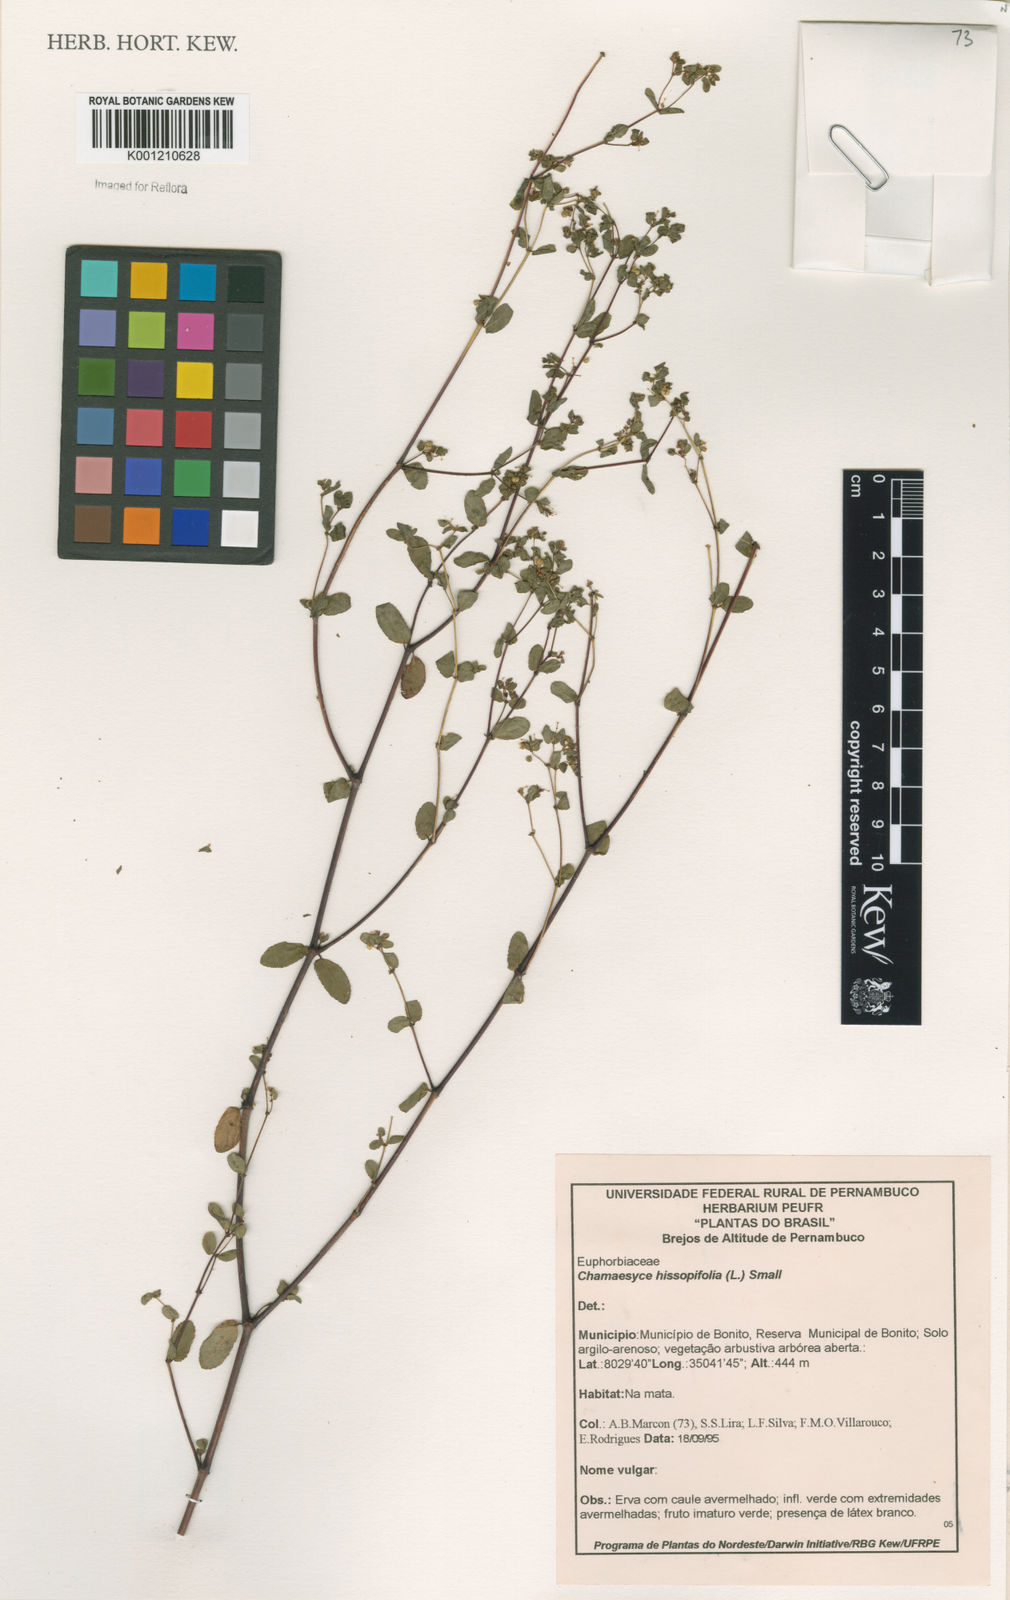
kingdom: Plantae
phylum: Tracheophyta
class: Magnoliopsida
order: Malpighiales
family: Euphorbiaceae
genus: Euphorbia
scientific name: Euphorbia hyssopifolia
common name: Hyssopleaf sandmat
